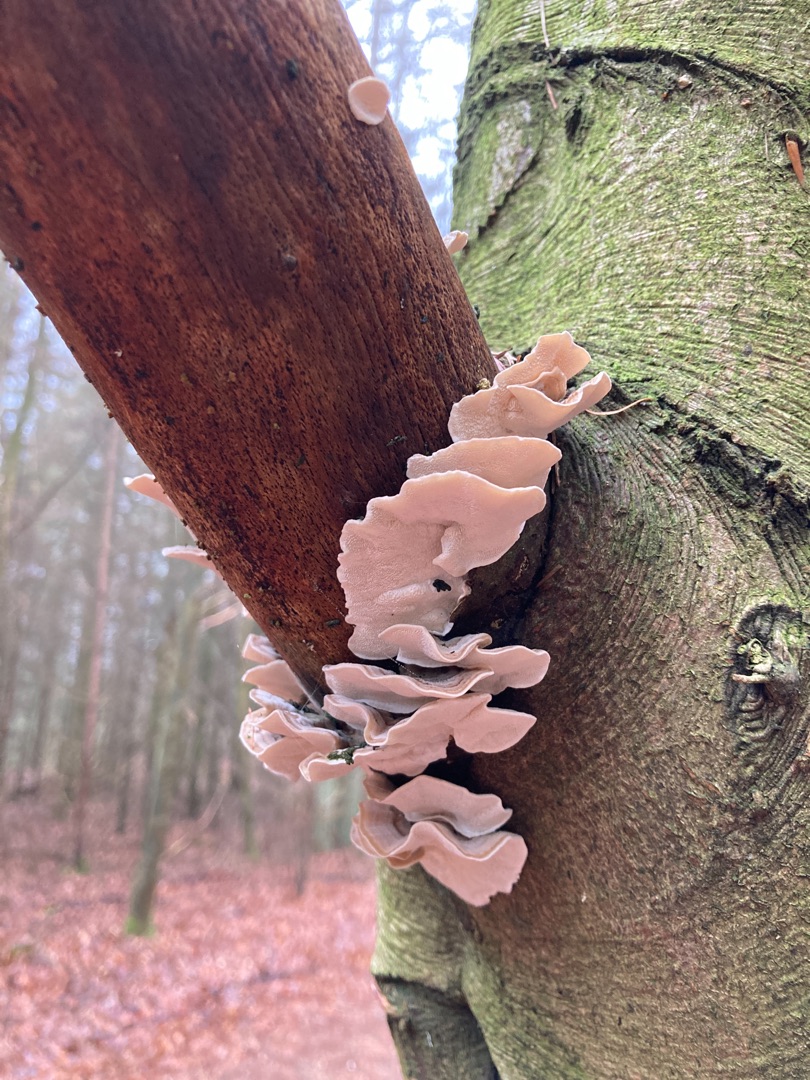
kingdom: Fungi
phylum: Basidiomycota
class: Agaricomycetes
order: Polyporales
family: Polyporaceae
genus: Trametes
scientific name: Trametes versicolor
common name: Broget læderporesvamp
